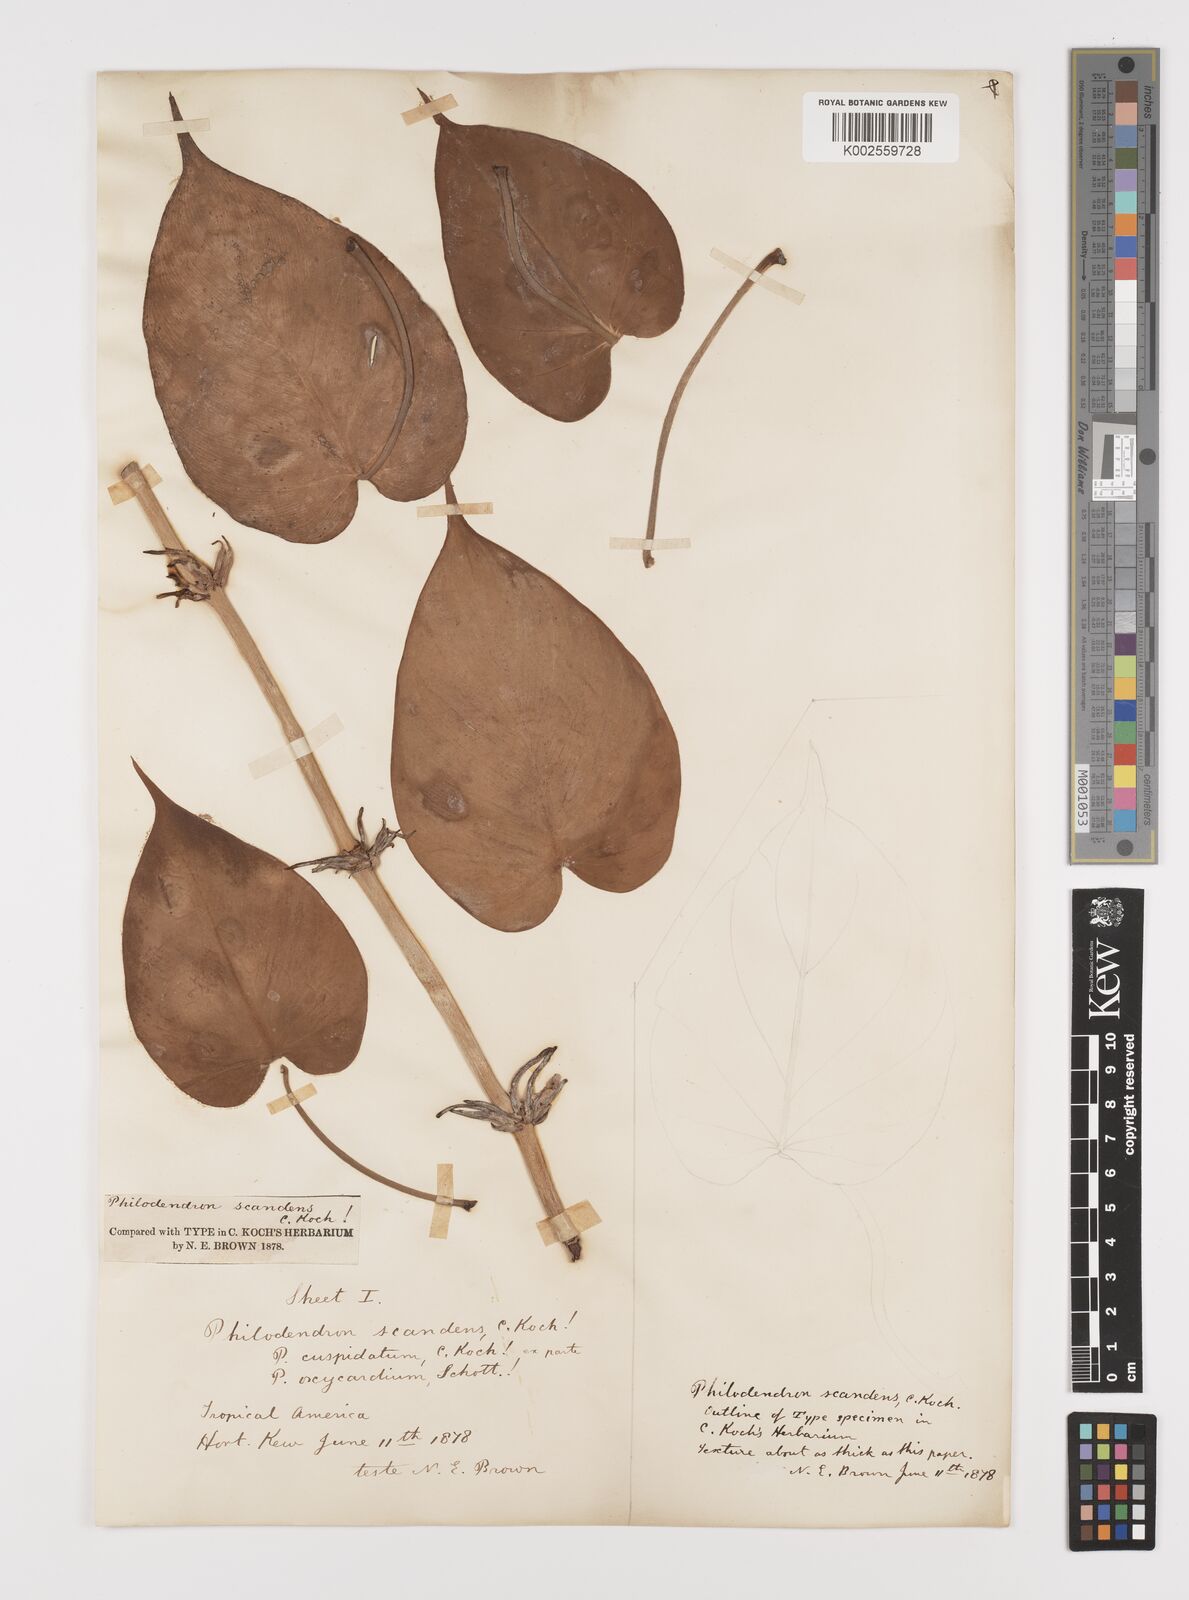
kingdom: Plantae
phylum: Tracheophyta
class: Liliopsida
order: Alismatales
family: Araceae
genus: Philodendron
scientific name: Philodendron hederaceum
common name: Vilevine
